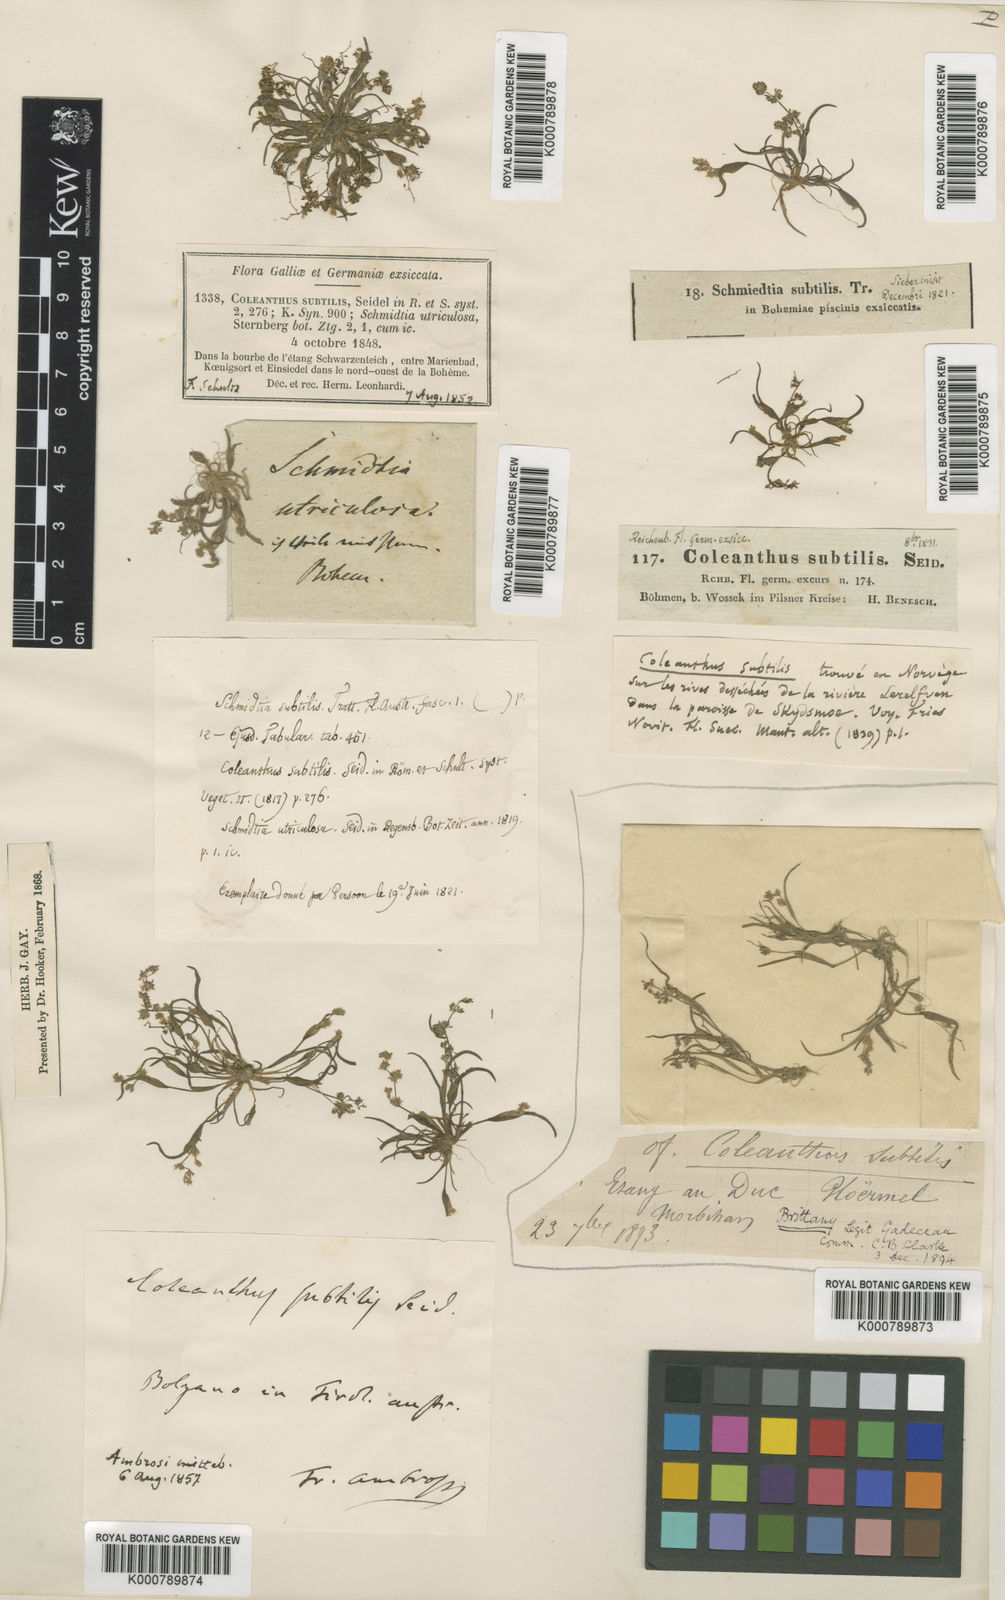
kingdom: Plantae
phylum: Tracheophyta
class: Liliopsida
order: Poales
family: Poaceae
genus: Coleanthus
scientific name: Coleanthus
